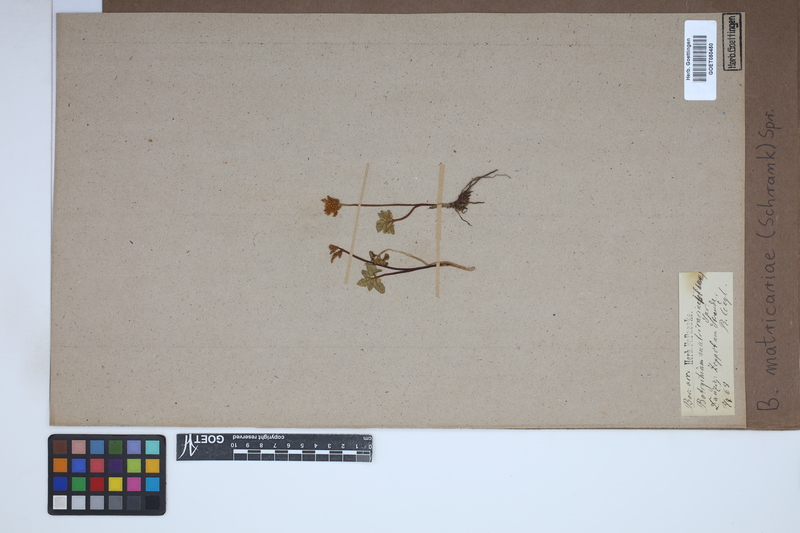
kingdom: Plantae
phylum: Tracheophyta
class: Polypodiopsida
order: Ophioglossales
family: Ophioglossaceae
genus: Sceptridium
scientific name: Sceptridium multifidum
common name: Leathery grape fern
